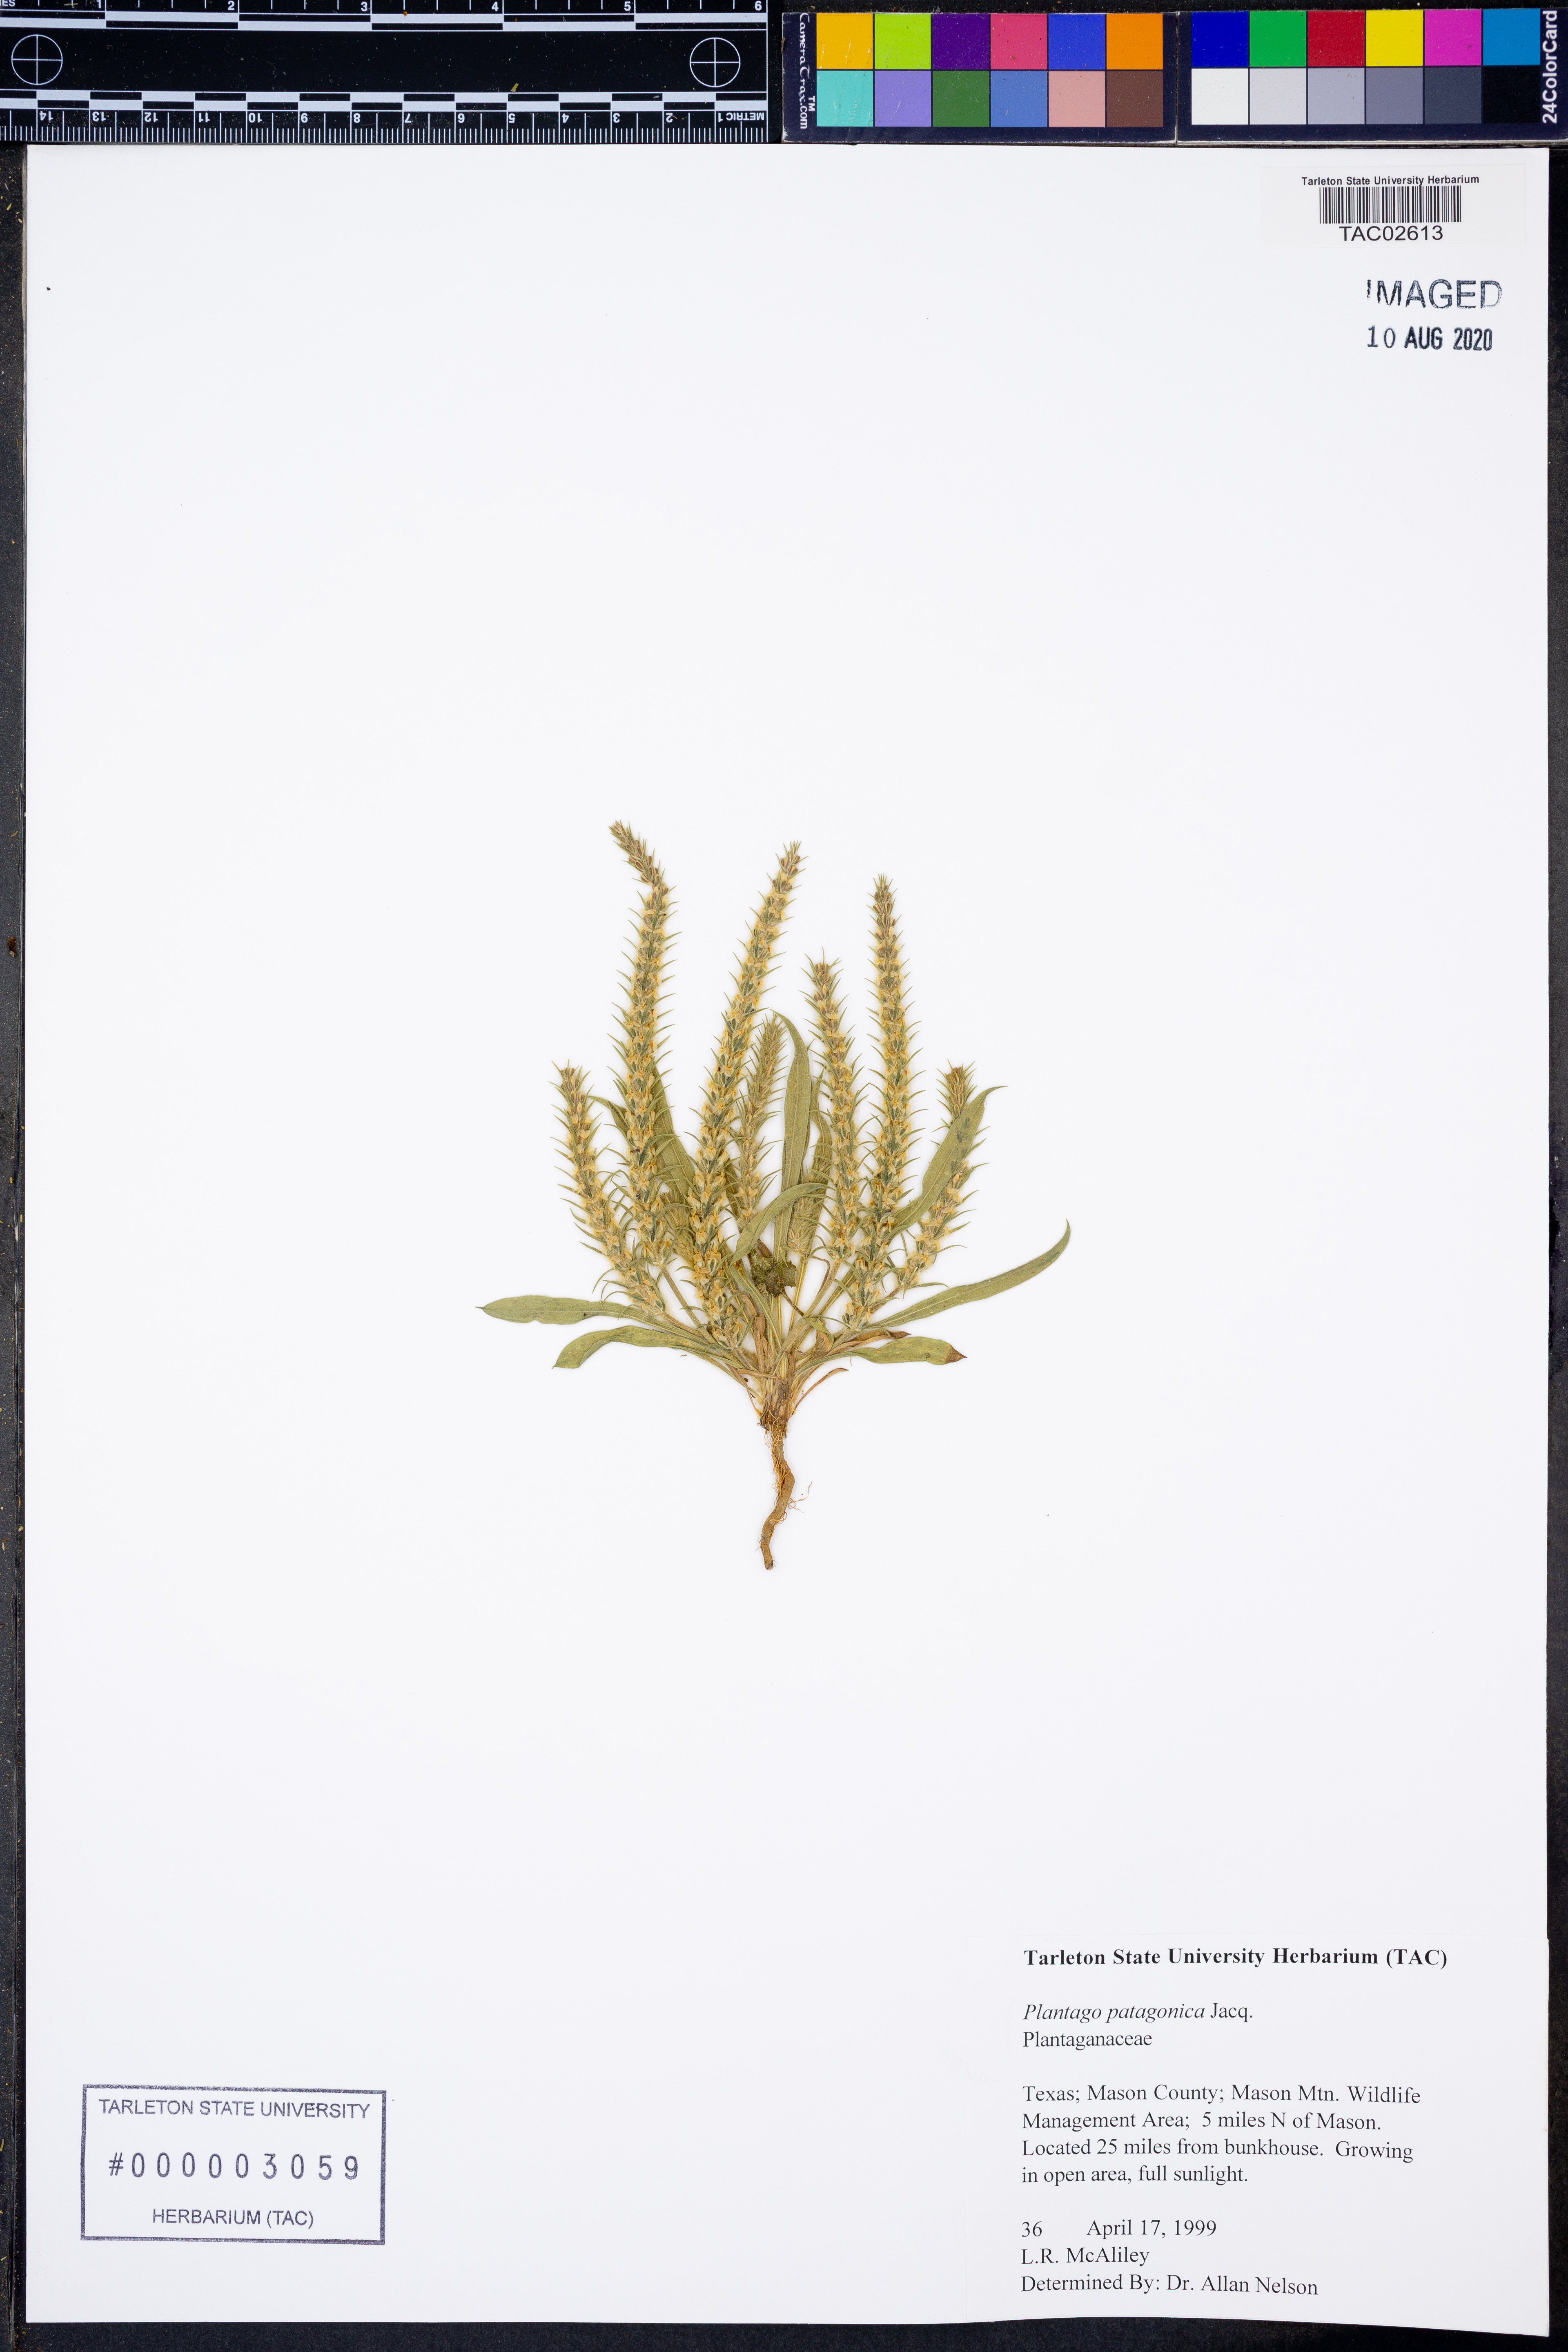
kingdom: Plantae
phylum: Tracheophyta
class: Magnoliopsida
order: Lamiales
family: Plantaginaceae
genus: Plantago
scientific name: Plantago patagonica
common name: Patagonia indian-wheat
